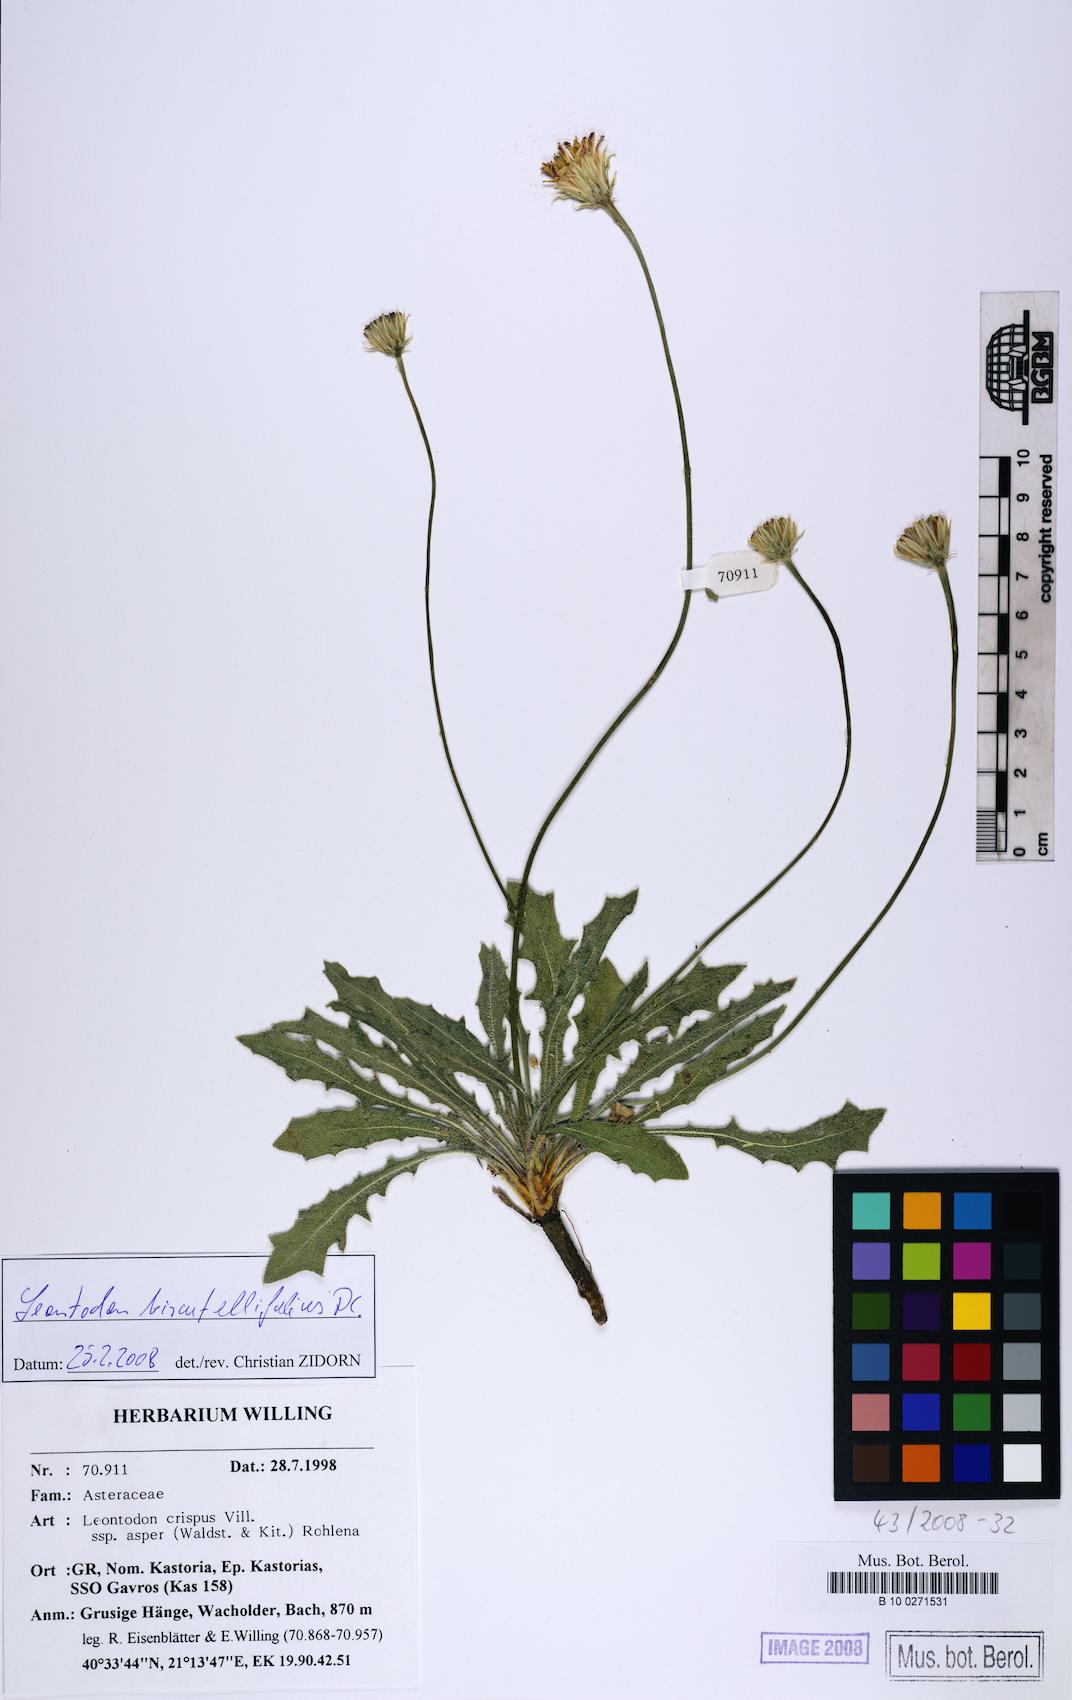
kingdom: Plantae
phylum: Tracheophyta
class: Magnoliopsida
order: Asterales
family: Asteraceae
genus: Leontodon
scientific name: Leontodon biscutellifolius
